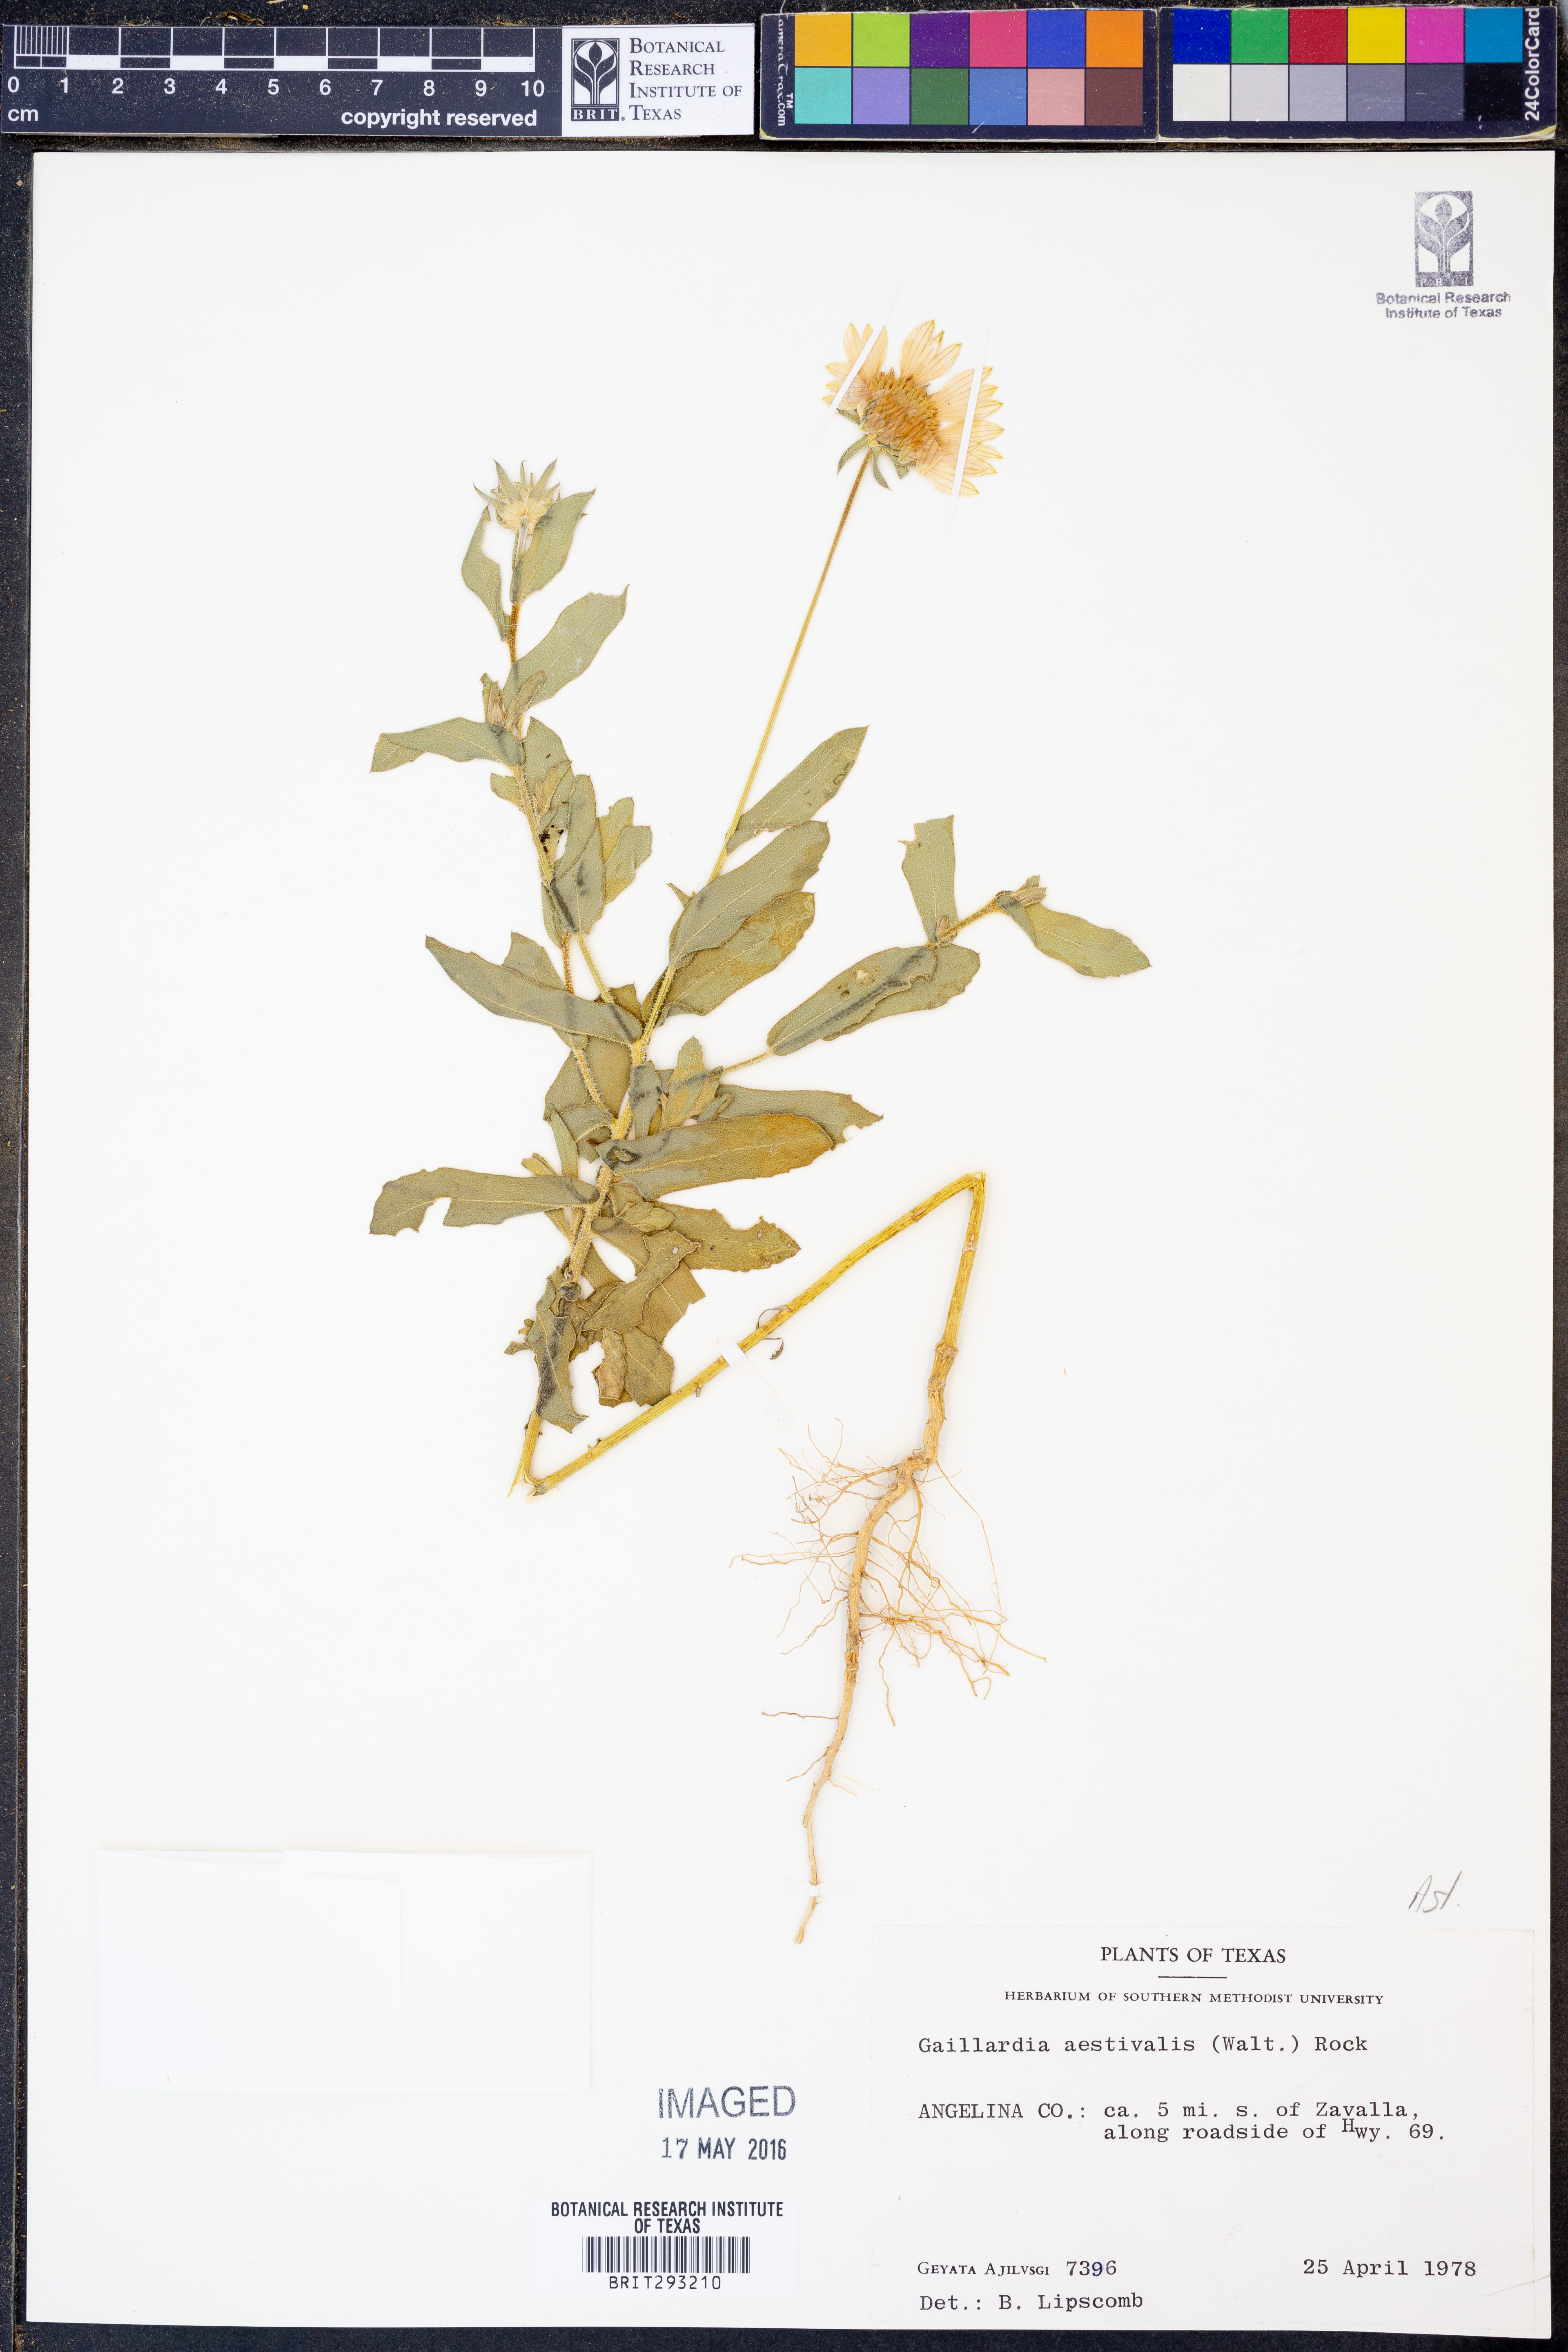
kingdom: Plantae
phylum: Tracheophyta
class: Magnoliopsida
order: Asterales
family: Asteraceae
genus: Gaillardia
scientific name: Gaillardia aestivalis
